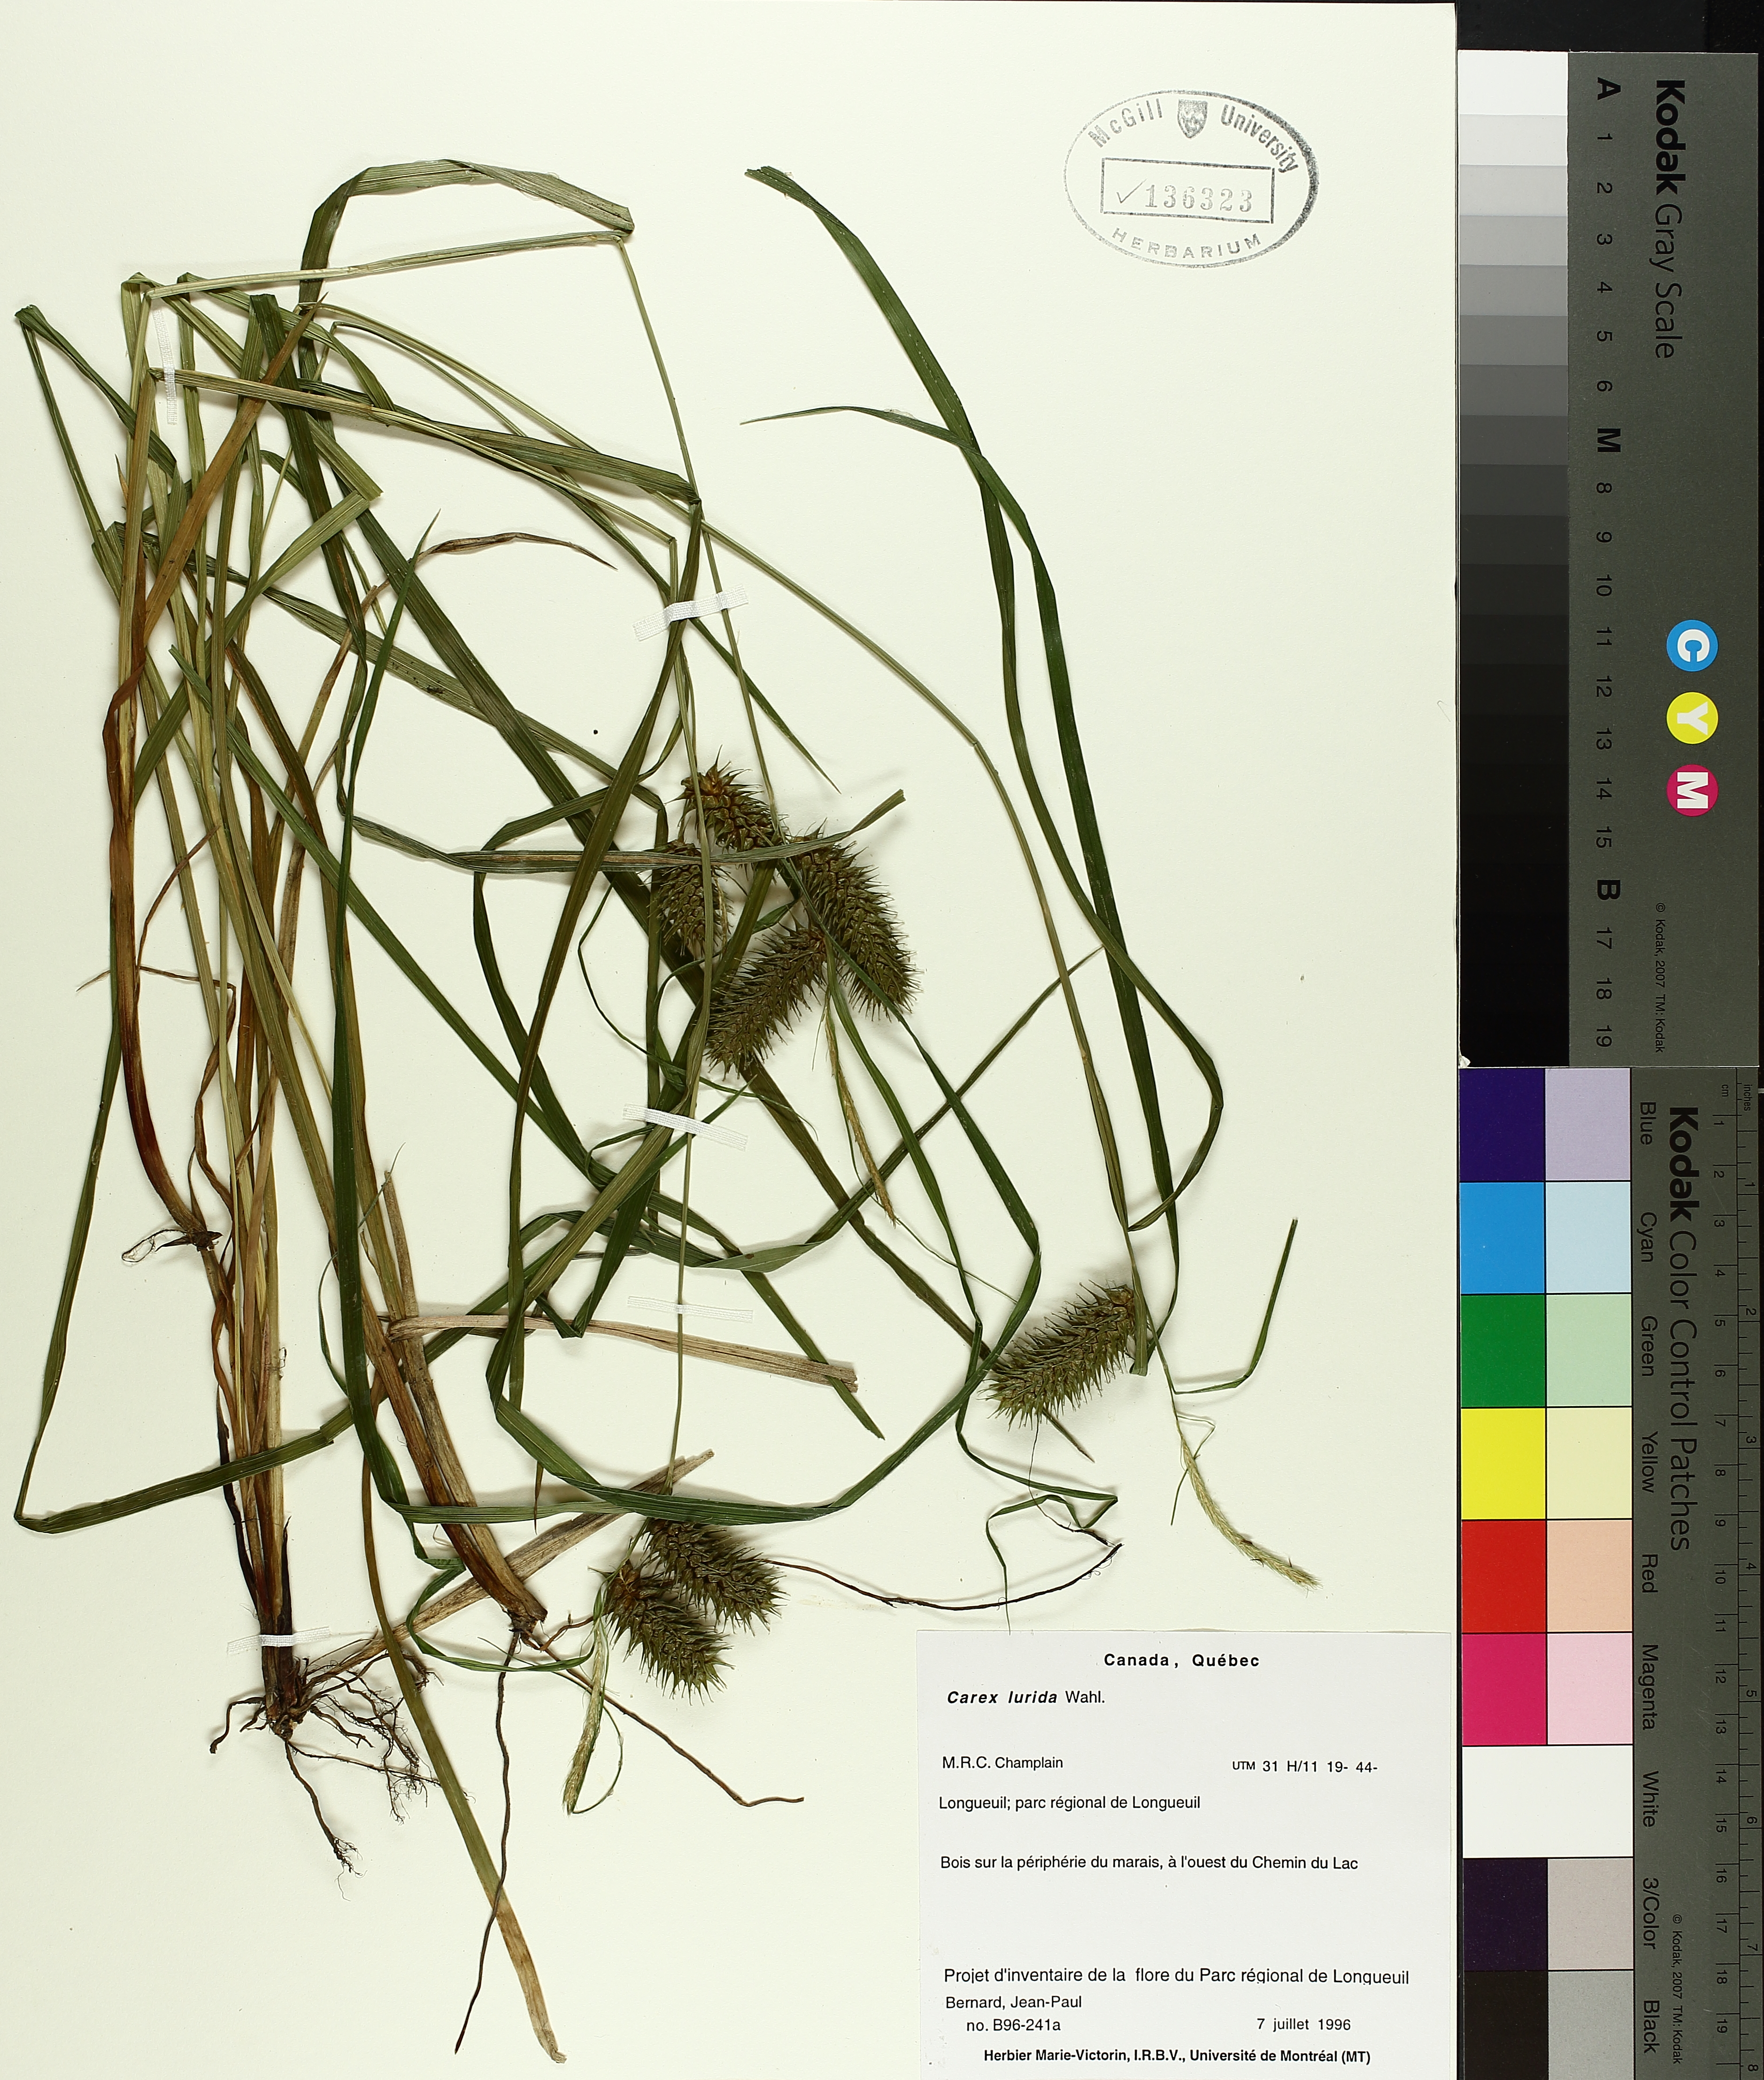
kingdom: Plantae
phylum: Tracheophyta
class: Liliopsida
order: Poales
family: Cyperaceae
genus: Carex
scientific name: Carex lurida
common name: Sallow sedge
